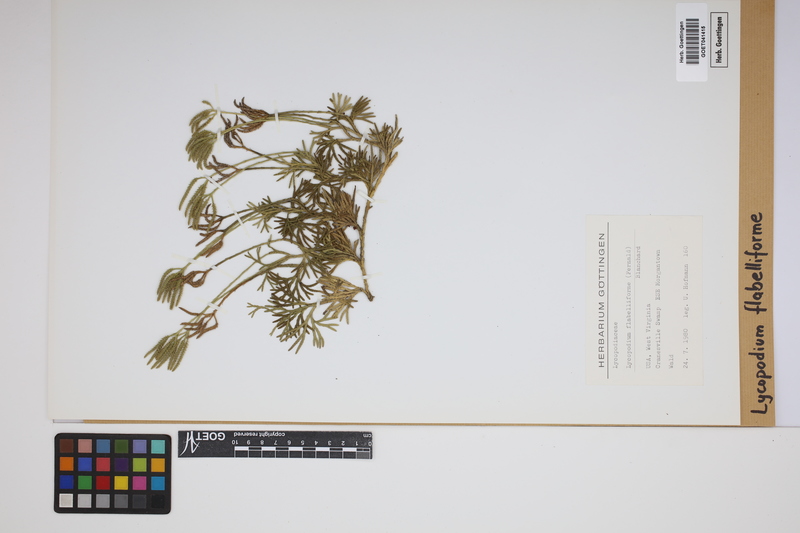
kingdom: Plantae
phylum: Tracheophyta
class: Lycopodiopsida
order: Lycopodiales
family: Lycopodiaceae
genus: Diphasiastrum
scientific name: Diphasiastrum digitatum
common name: Southern running-pine
